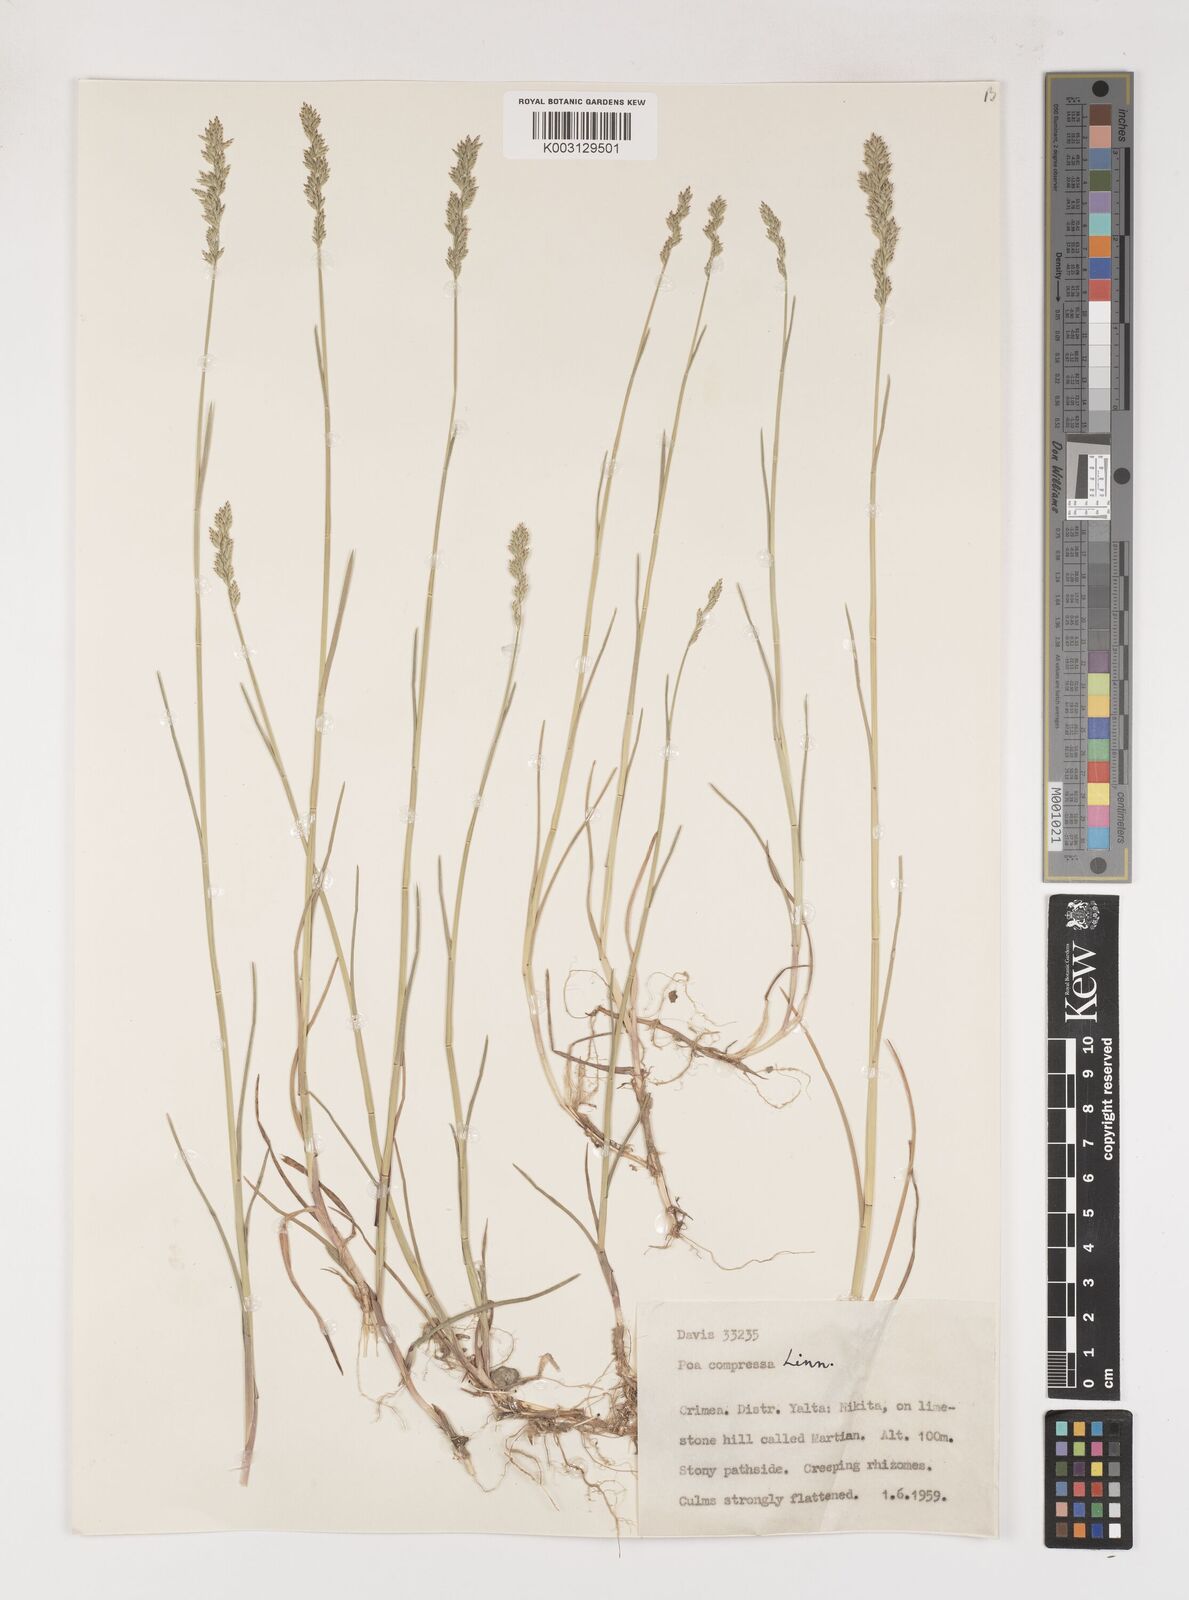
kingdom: Plantae
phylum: Tracheophyta
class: Liliopsida
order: Poales
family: Poaceae
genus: Poa
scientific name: Poa compressa
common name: Canada bluegrass
